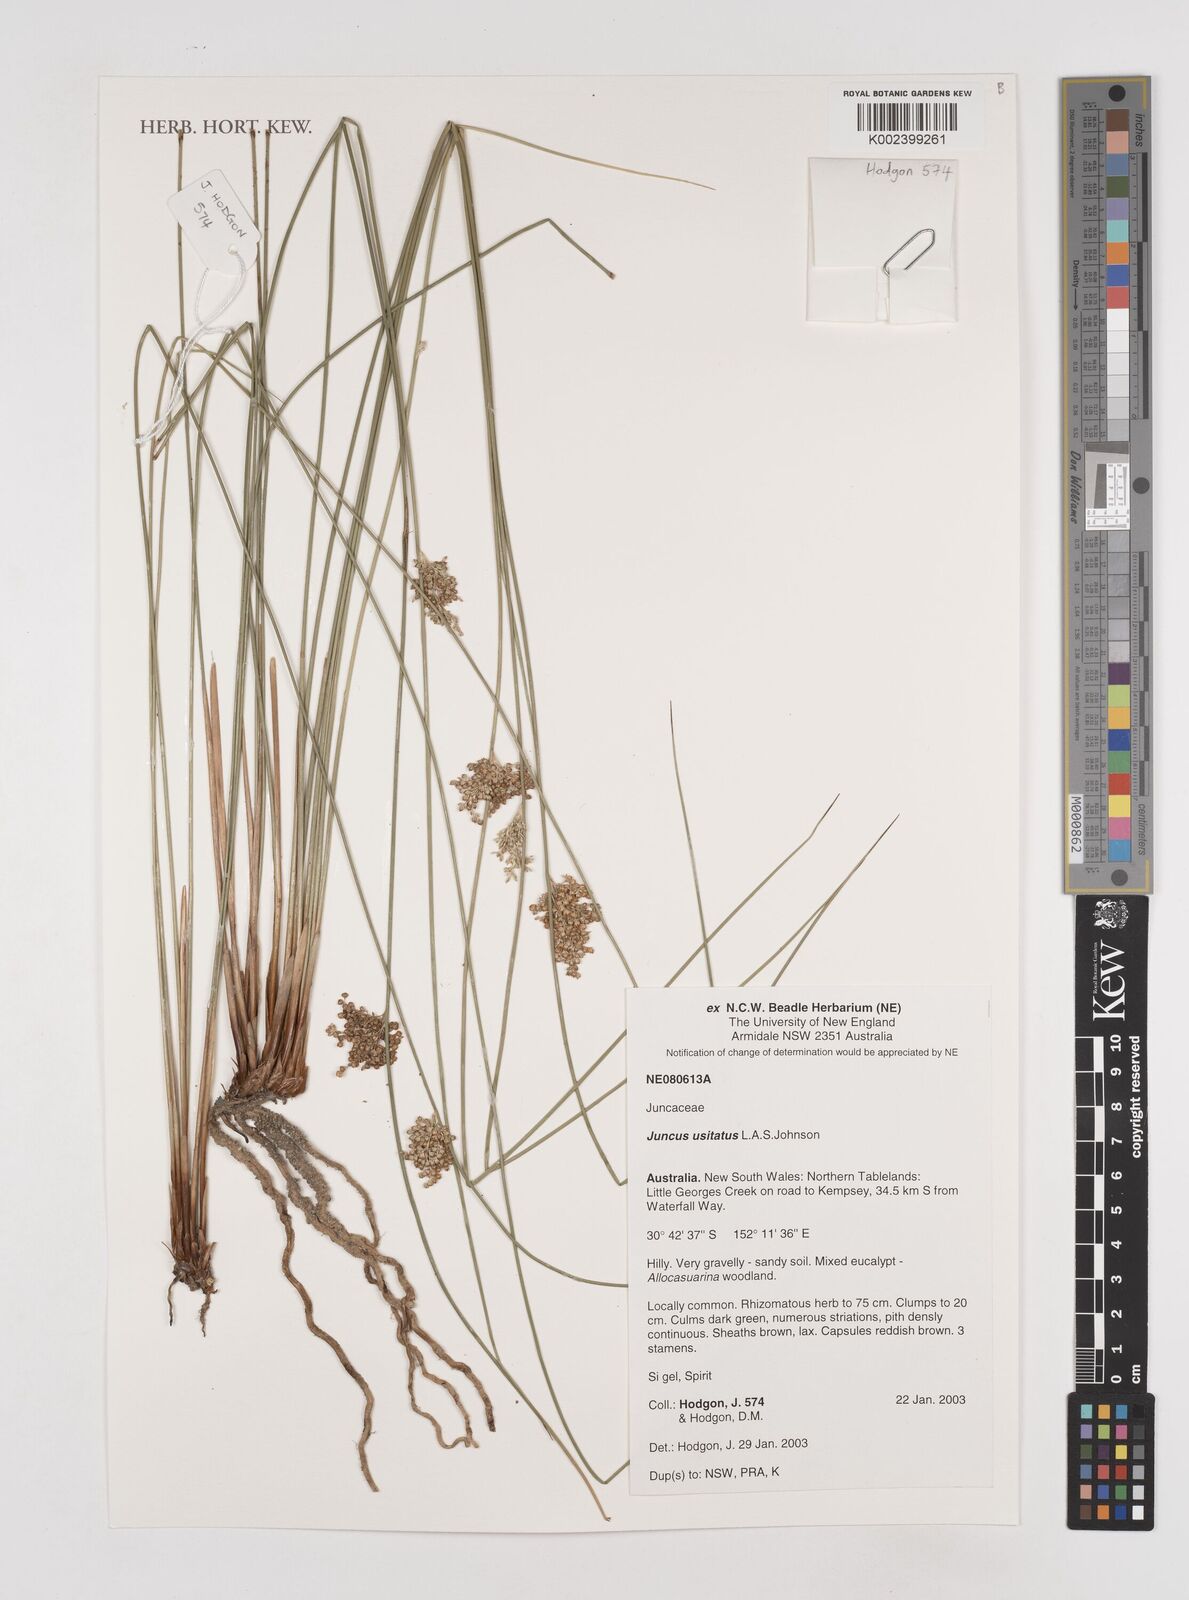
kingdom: Plantae
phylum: Tracheophyta
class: Liliopsida
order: Poales
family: Juncaceae
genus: Juncus
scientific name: Juncus usitatus
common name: Rush
